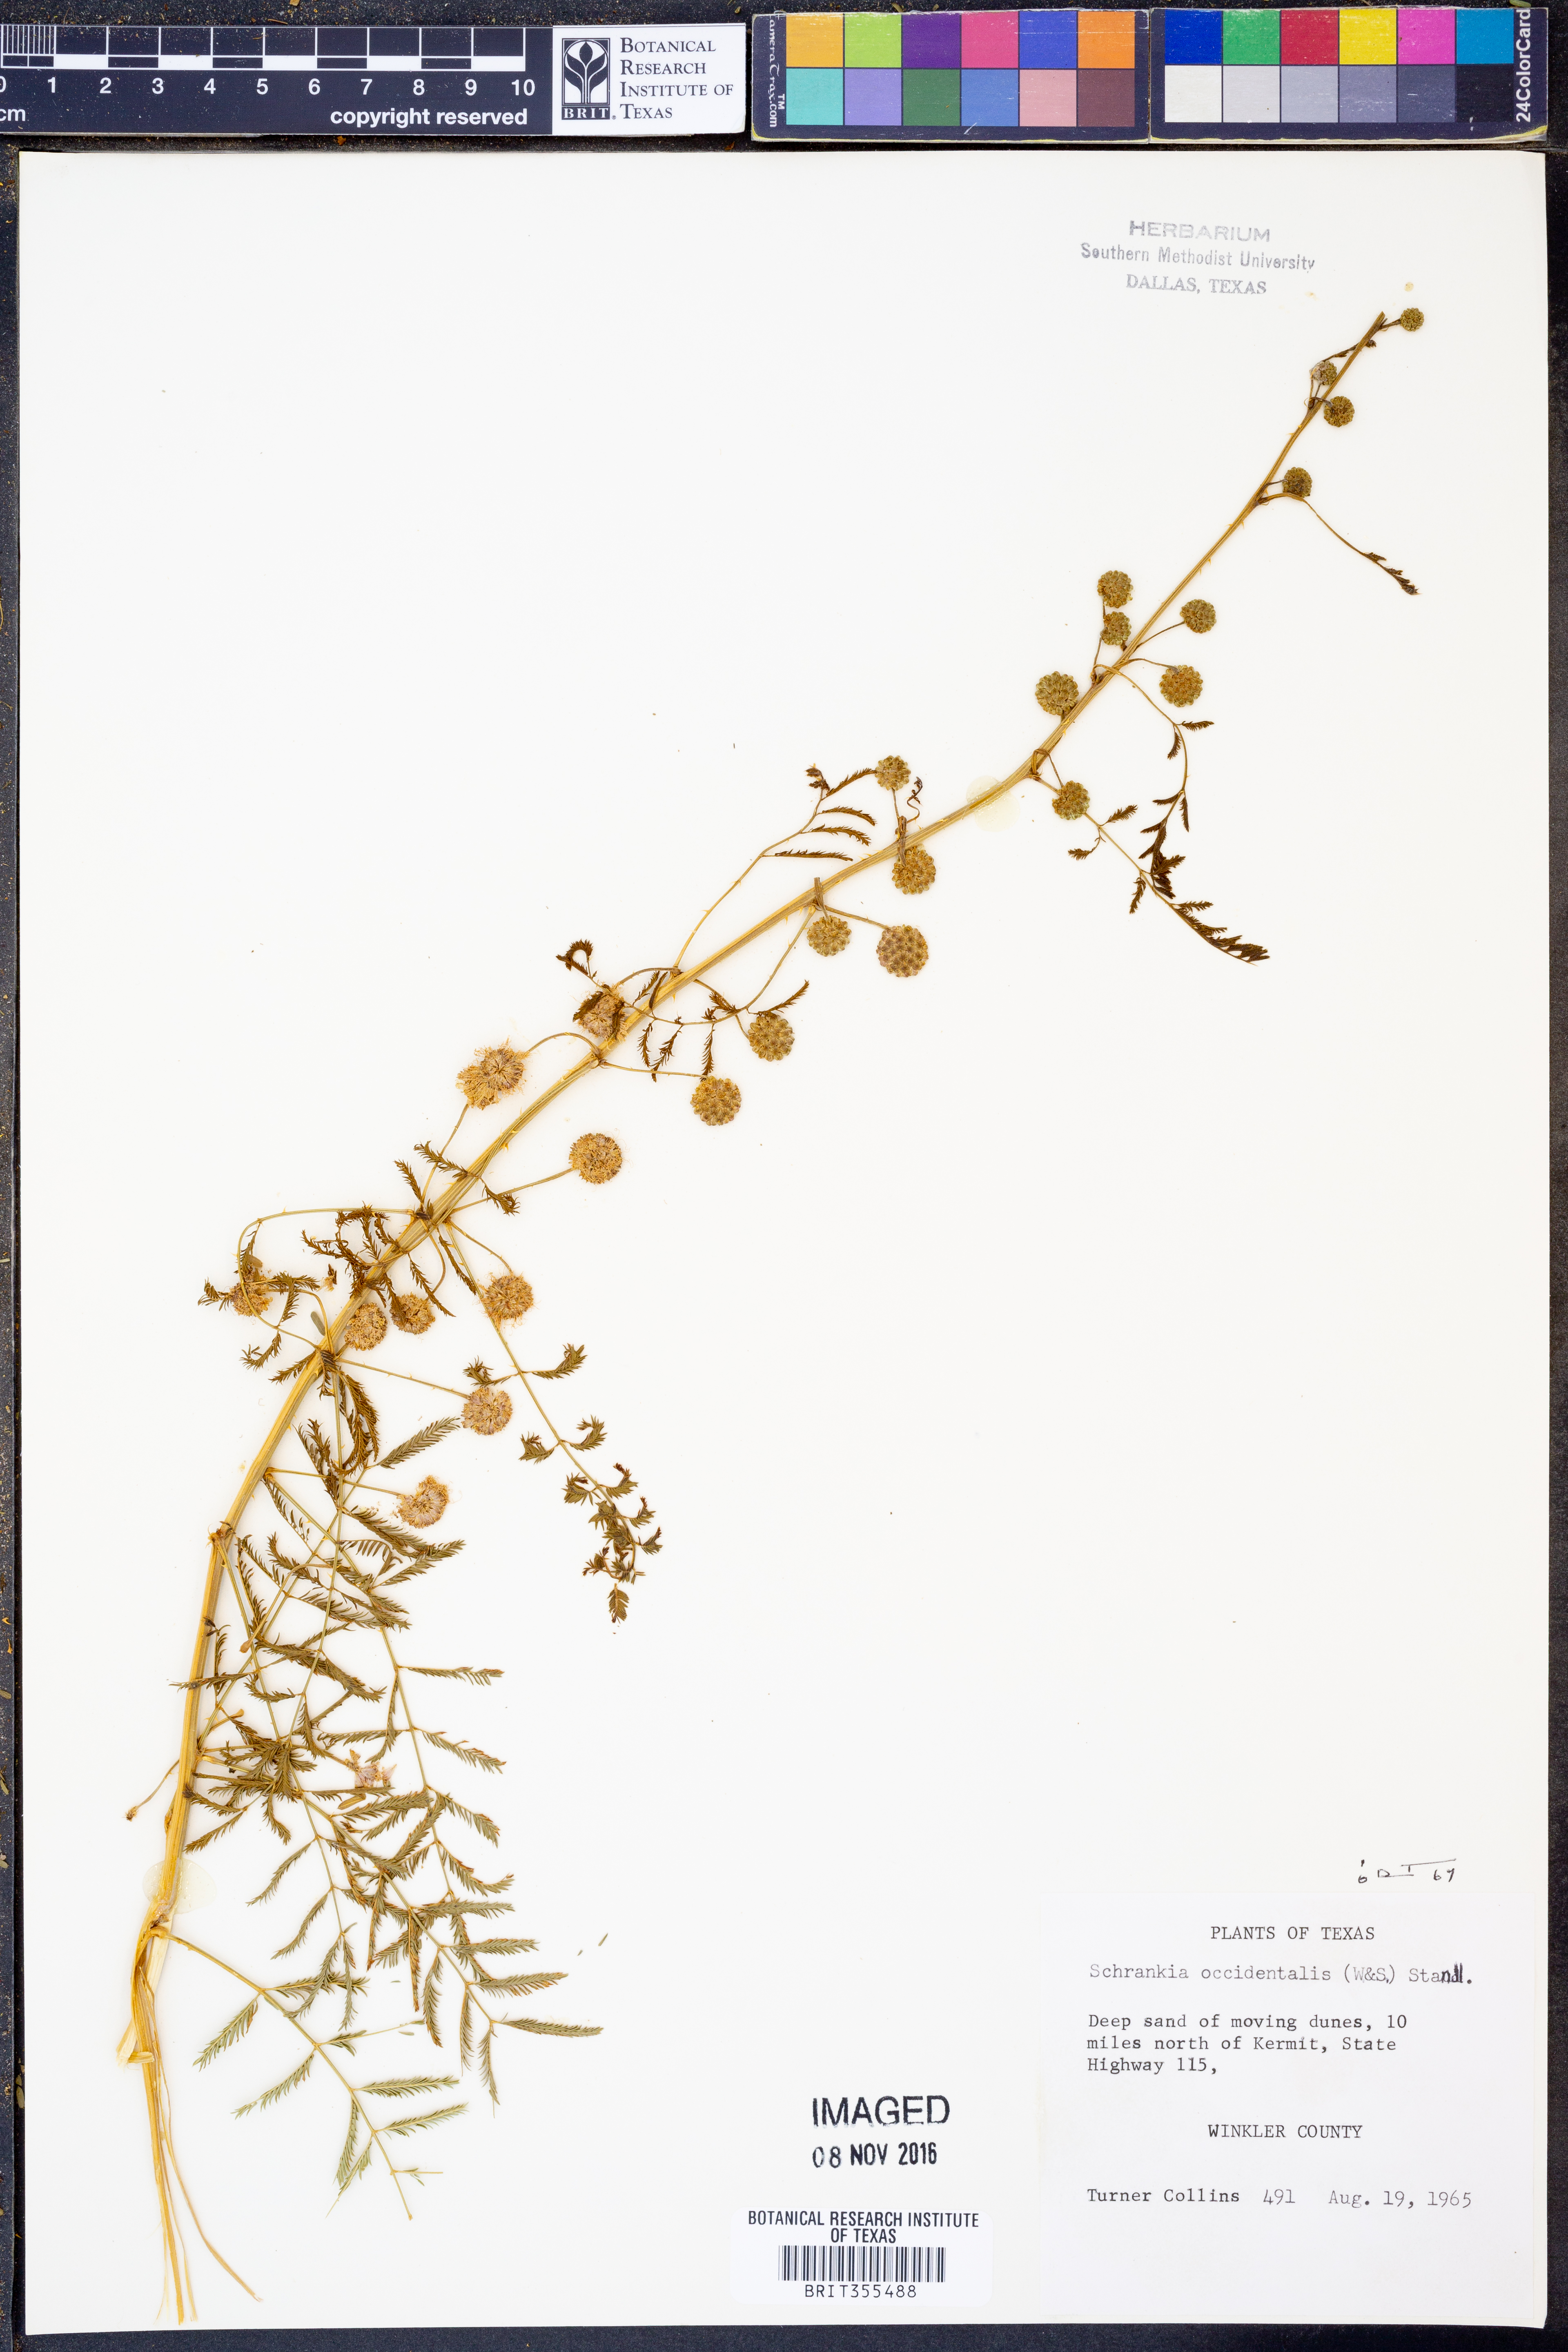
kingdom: Plantae
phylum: Tracheophyta
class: Magnoliopsida
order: Fabales
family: Fabaceae
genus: Mimosa
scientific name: Mimosa quadrivalvis
